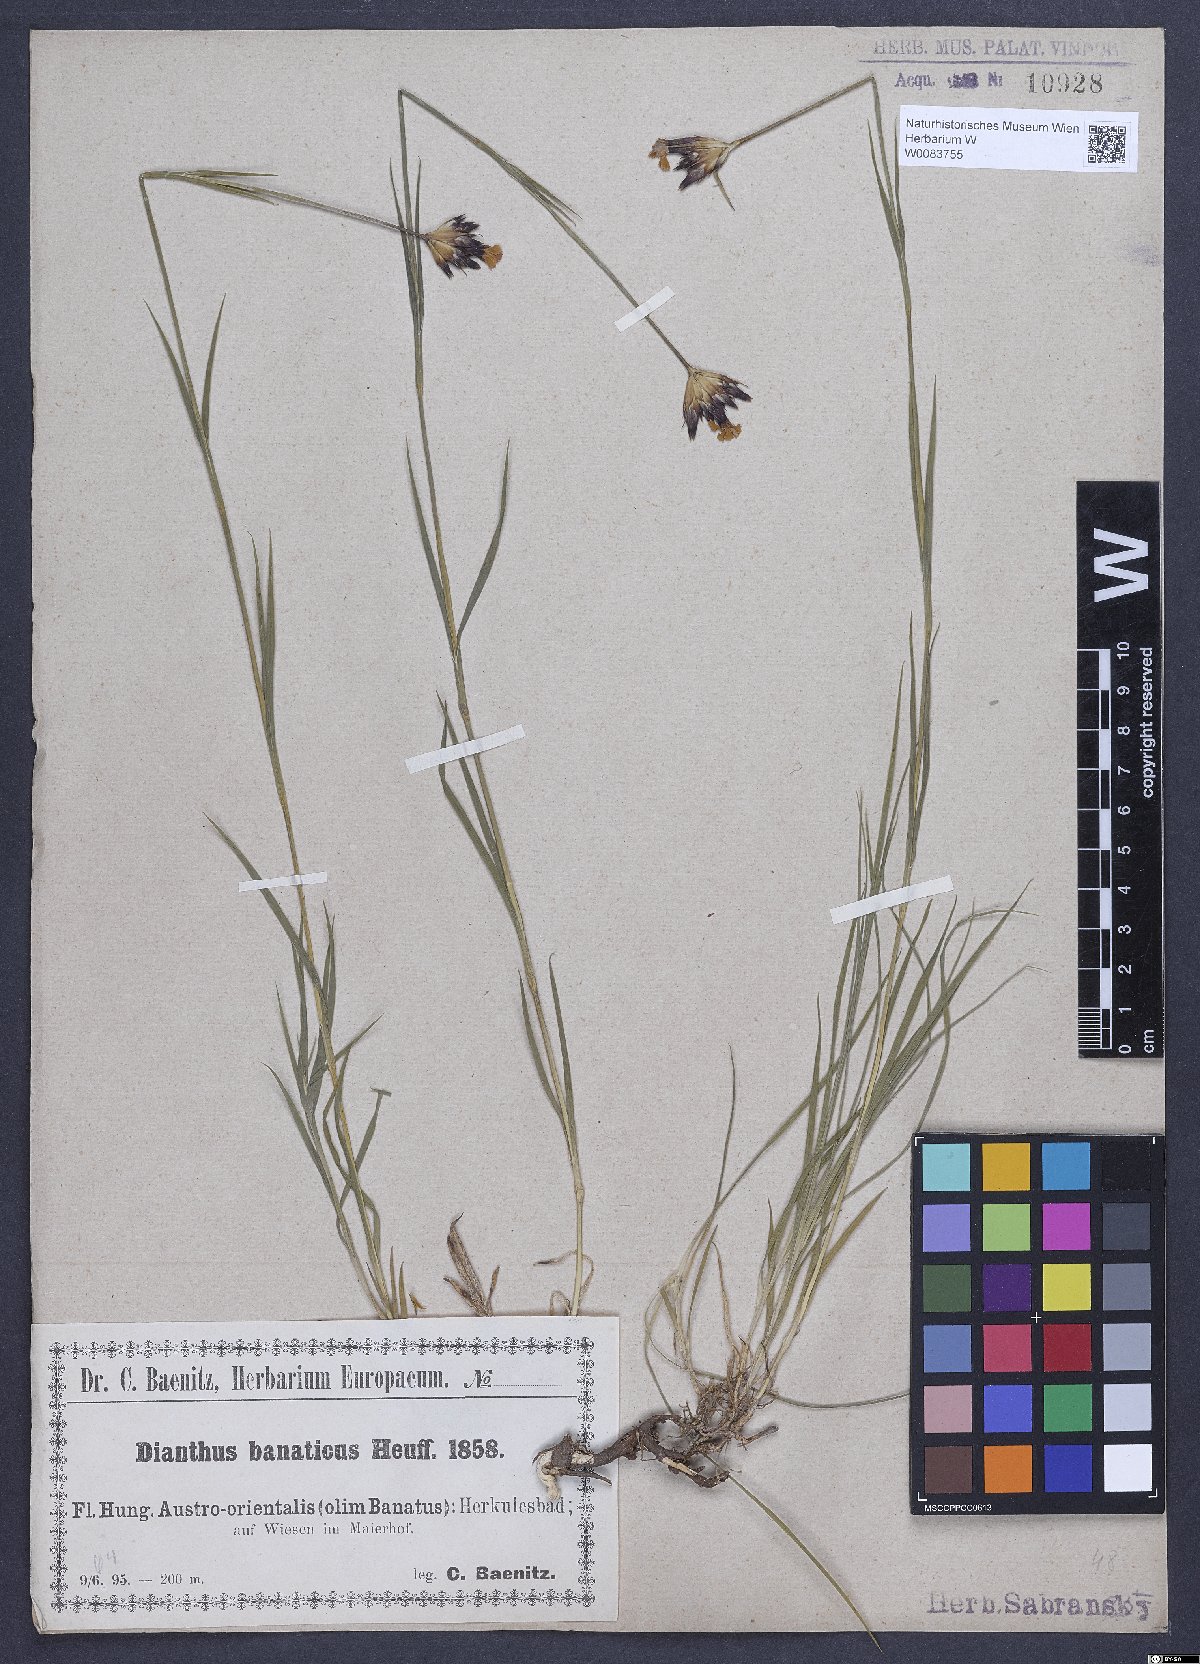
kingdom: Plantae
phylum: Tracheophyta
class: Magnoliopsida
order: Caryophyllales
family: Caryophyllaceae
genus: Dianthus
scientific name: Dianthus giganteus
